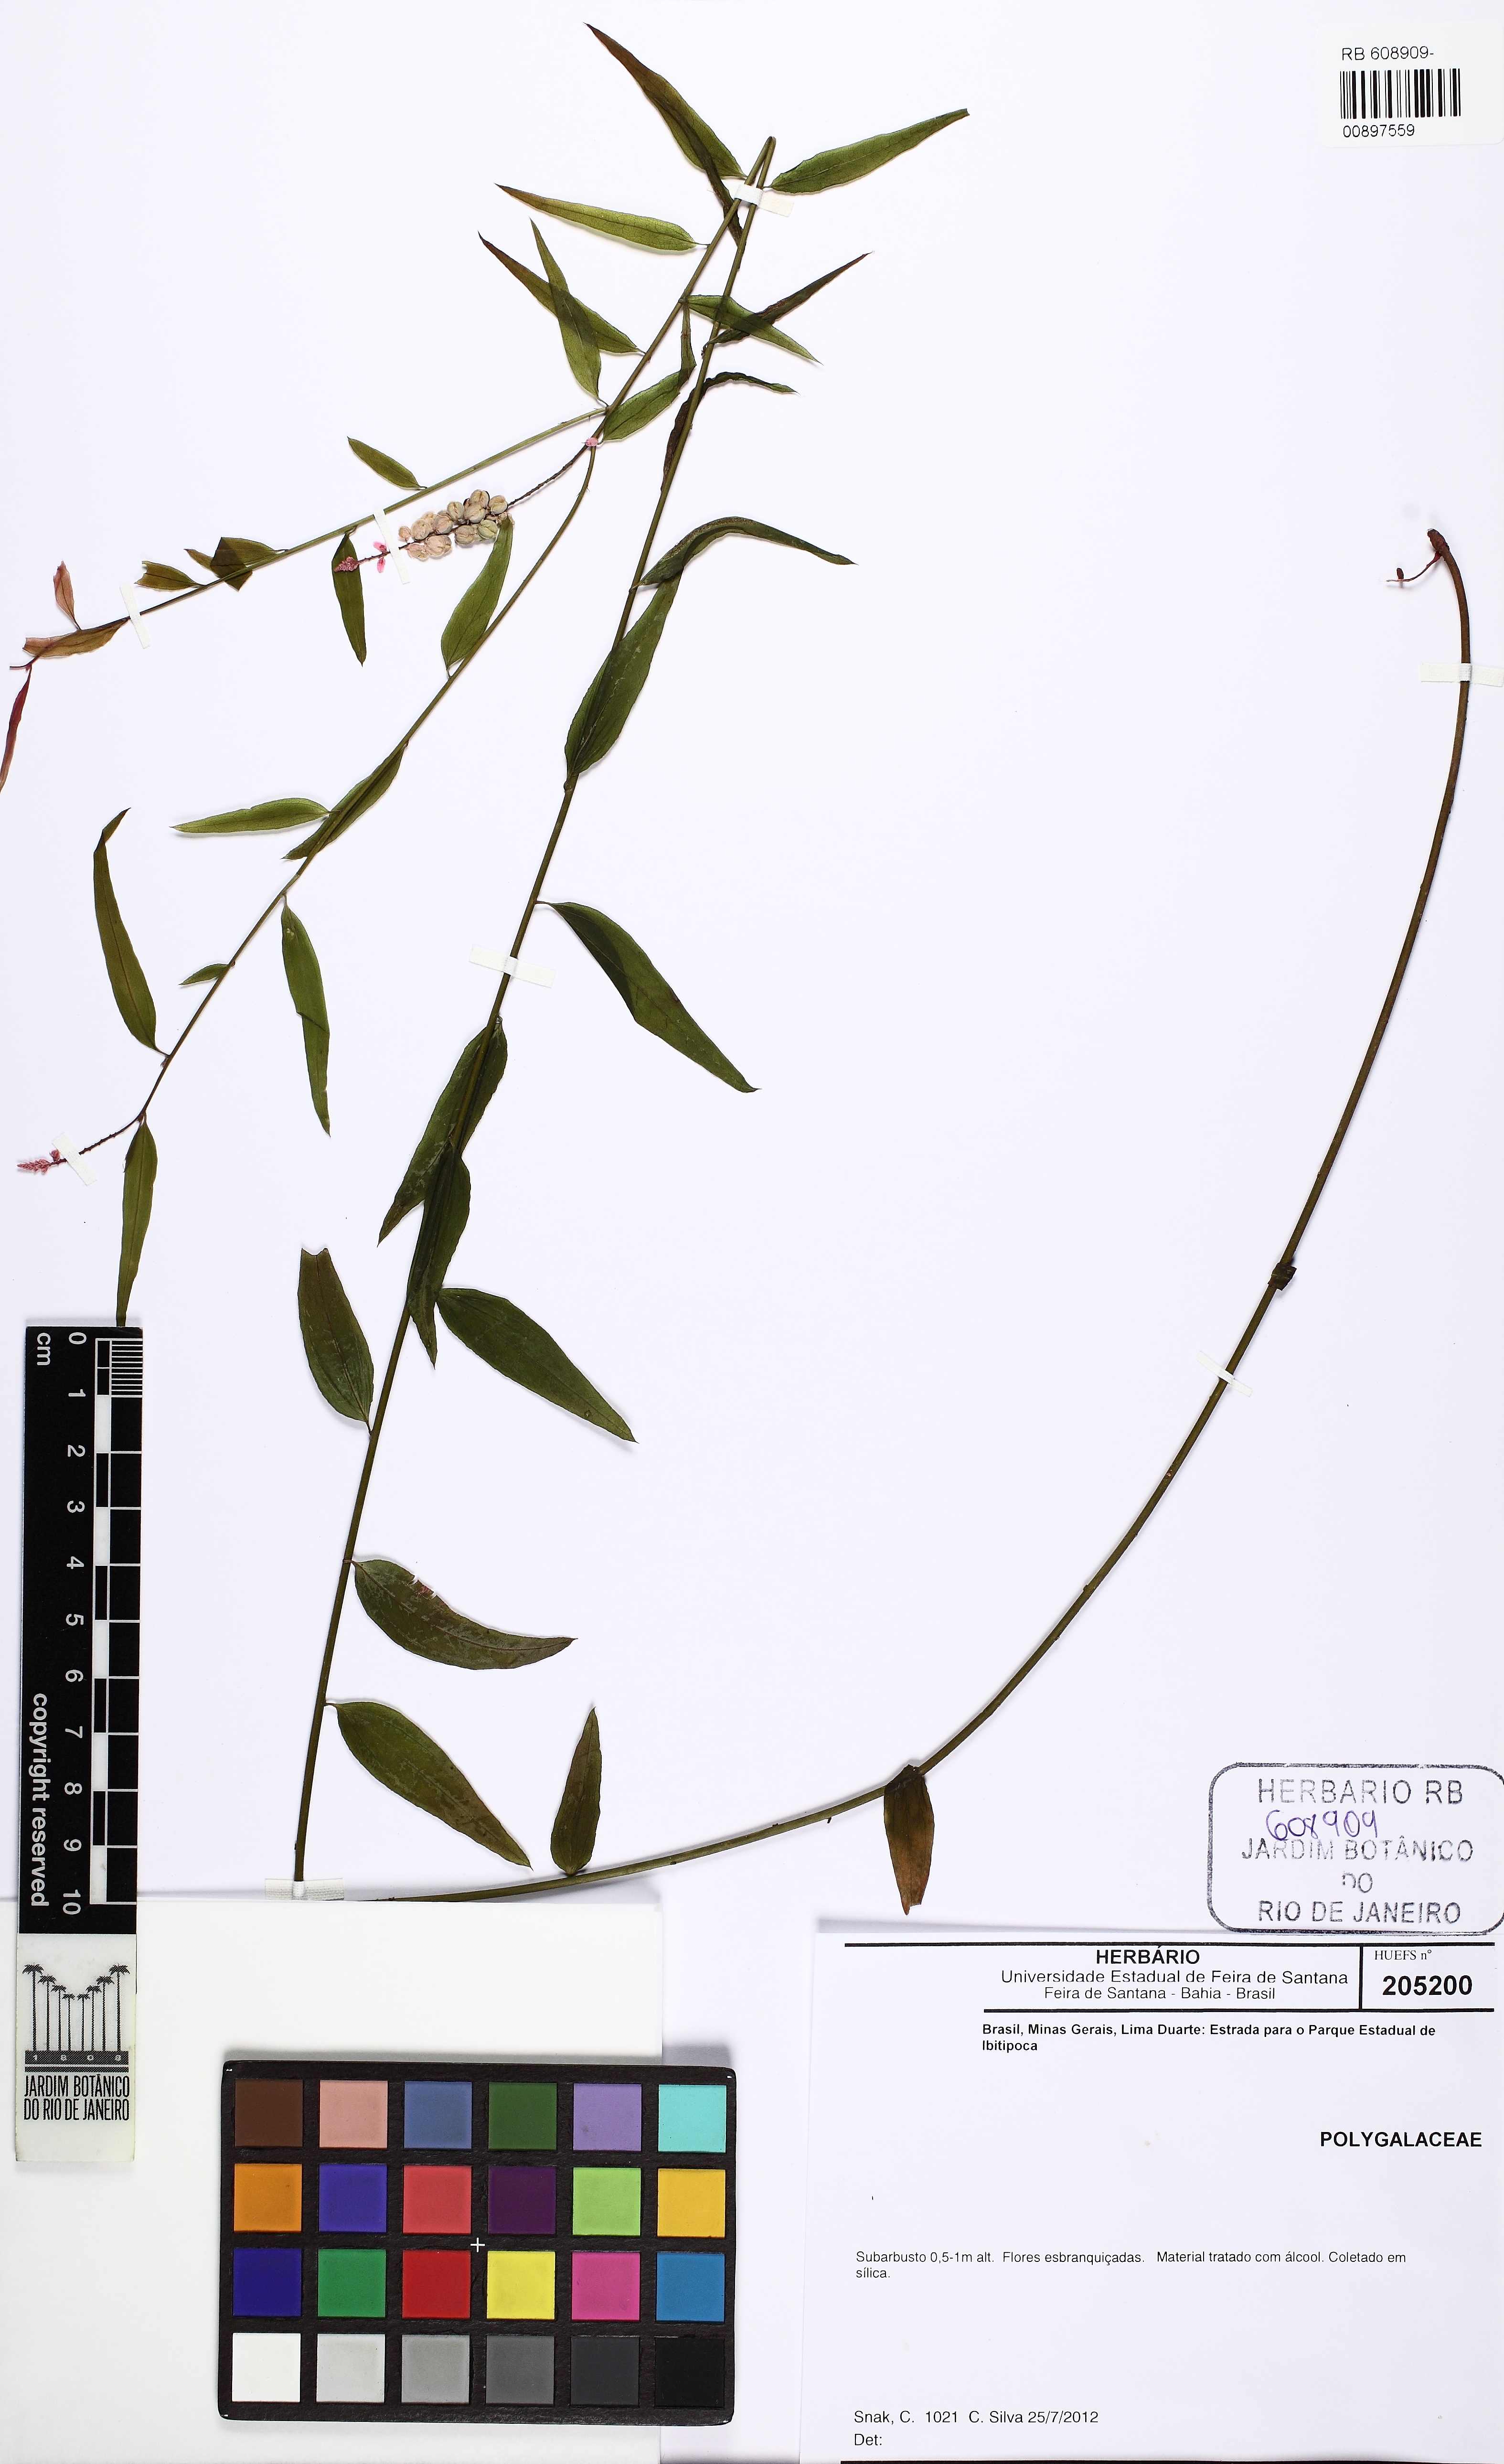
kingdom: Plantae
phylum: Tracheophyta
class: Magnoliopsida
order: Fabales
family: Polygalaceae
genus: Polygala
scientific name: Polygala lancifolia
